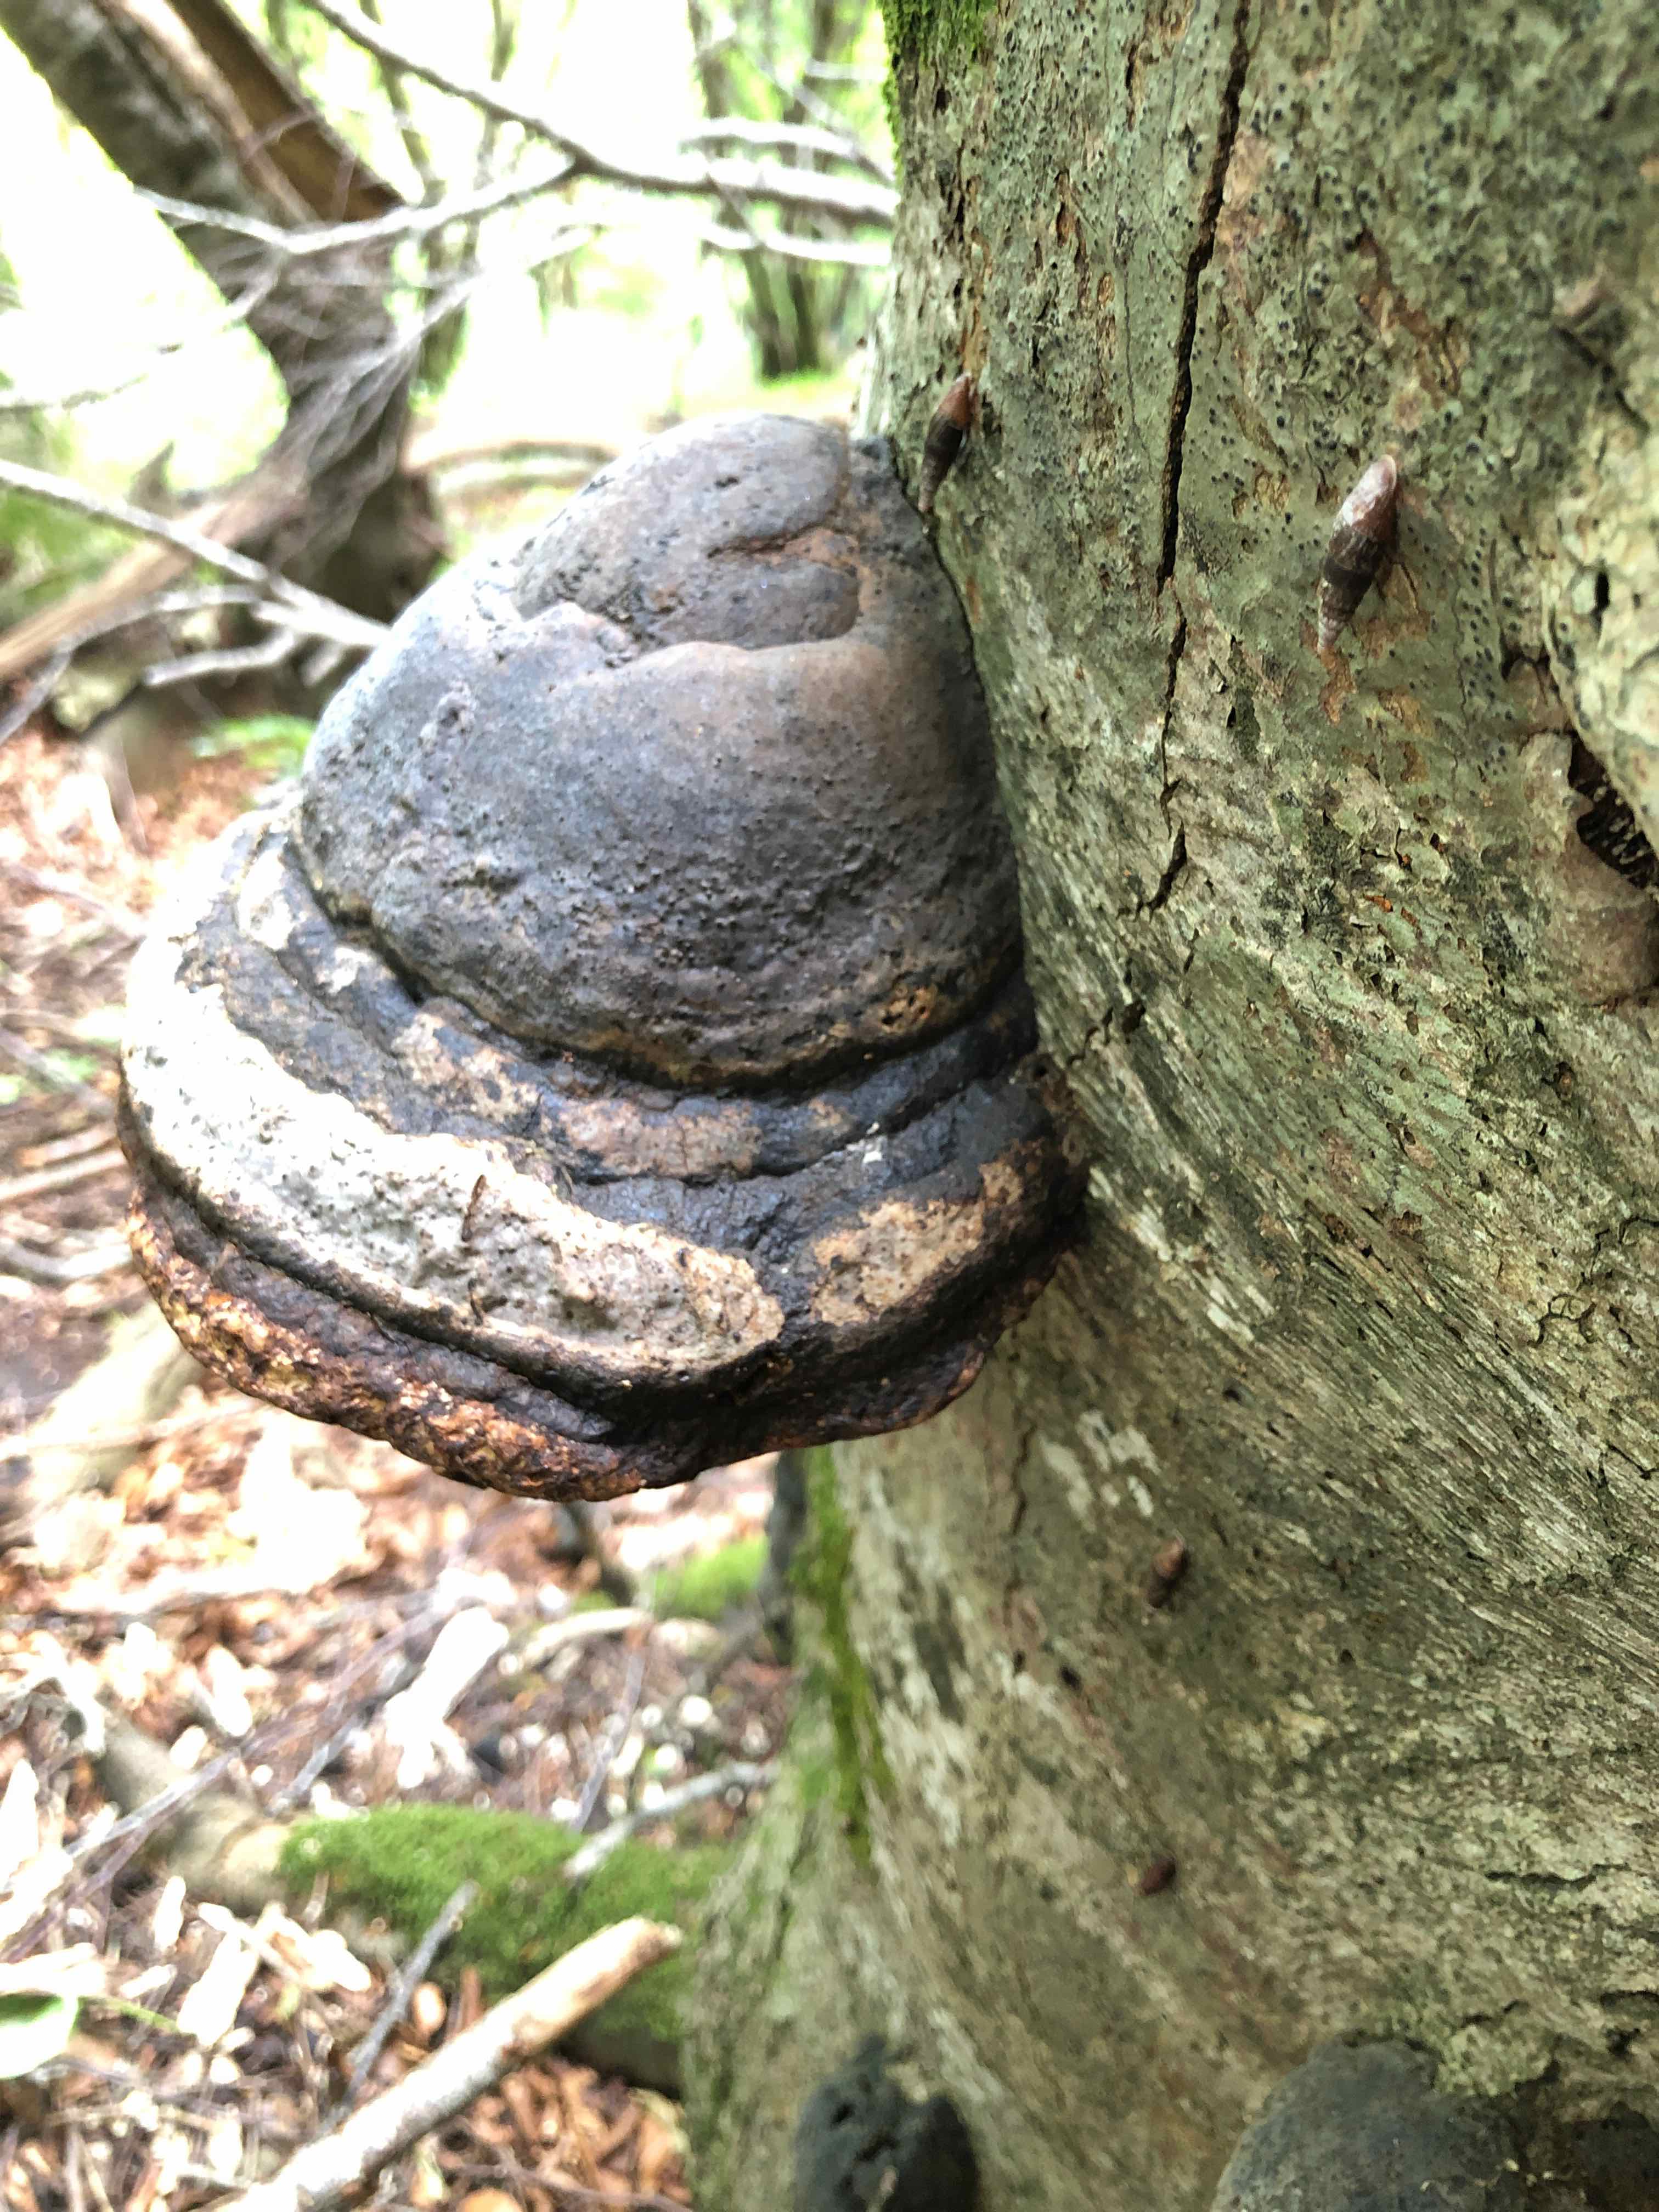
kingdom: Fungi
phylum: Basidiomycota
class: Agaricomycetes
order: Polyporales
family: Polyporaceae
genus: Fomes
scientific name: Fomes fomentarius
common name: tøndersvamp
